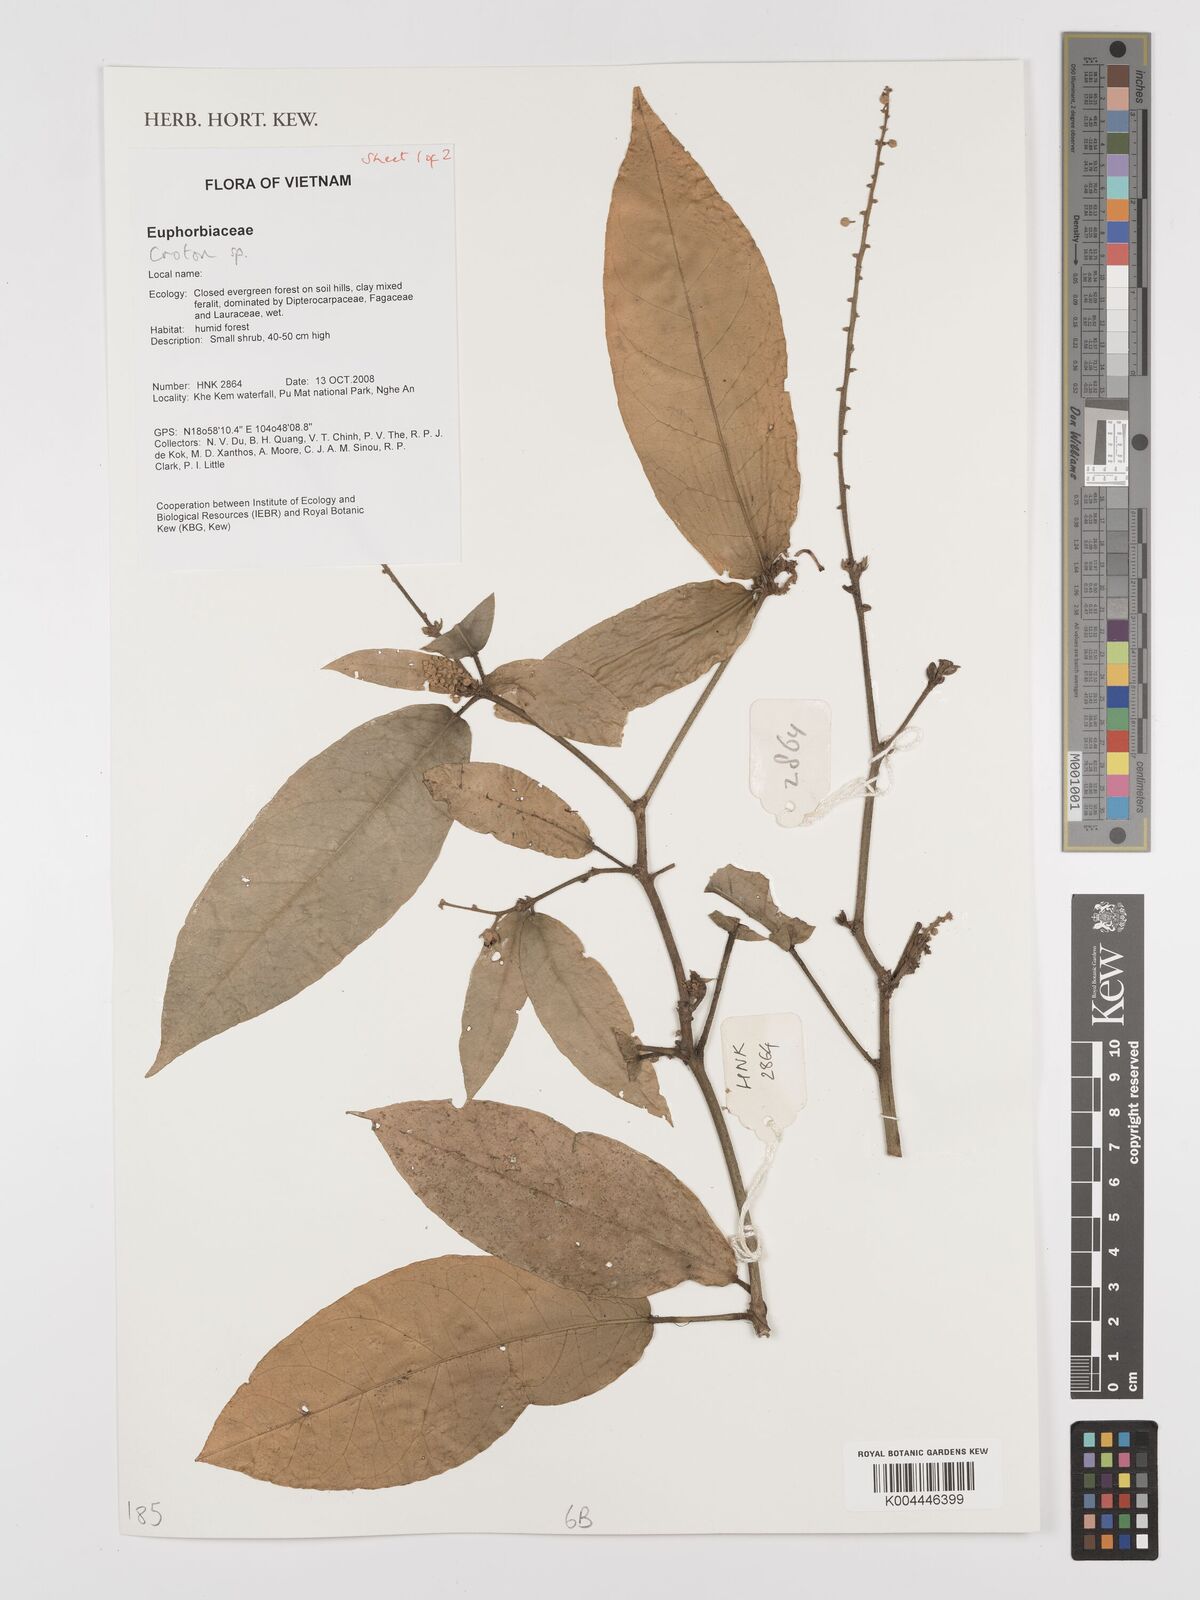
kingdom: Plantae
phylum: Tracheophyta
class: Magnoliopsida
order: Malpighiales
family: Euphorbiaceae
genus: Croton
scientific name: Croton
